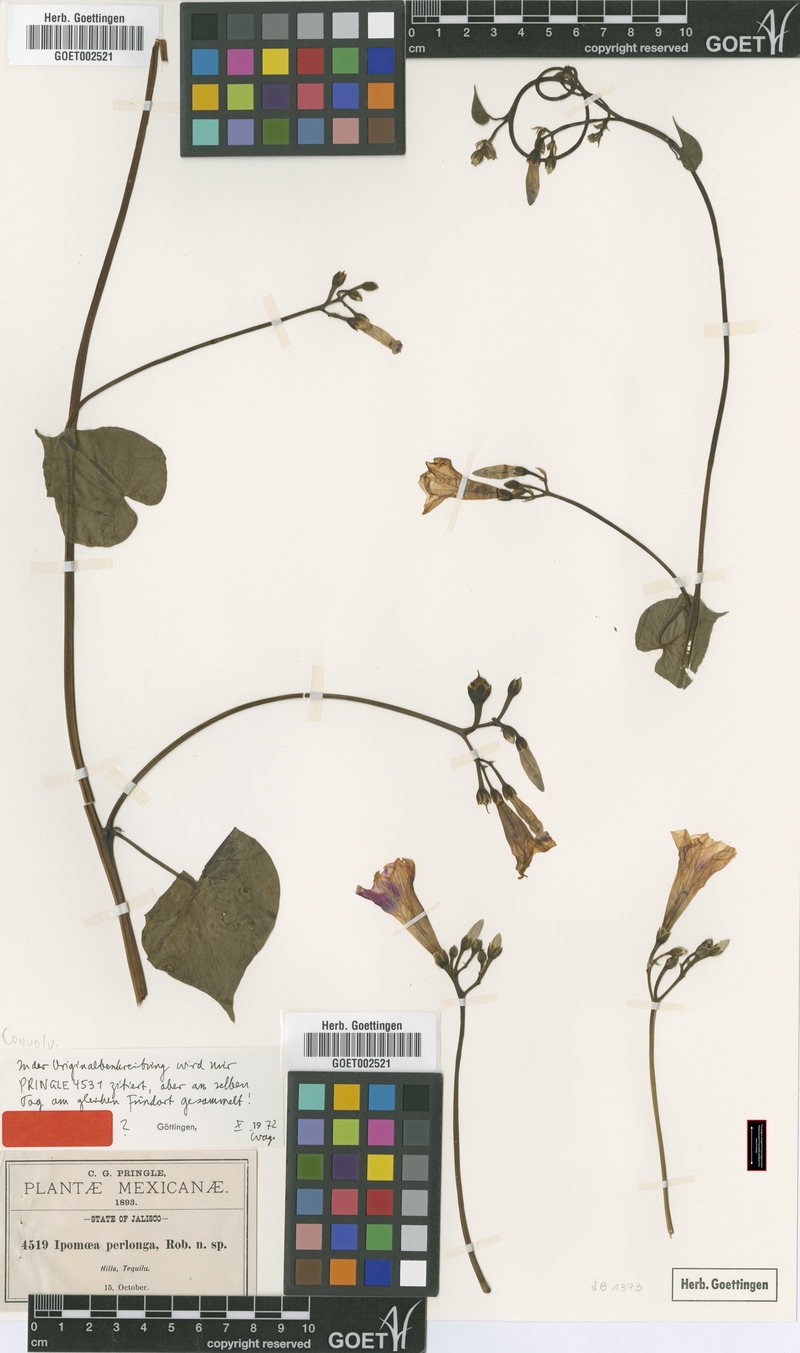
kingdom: Plantae
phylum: Tracheophyta
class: Magnoliopsida
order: Solanales
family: Convolvulaceae
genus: Ipomoea
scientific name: Ipomoea parasitica
